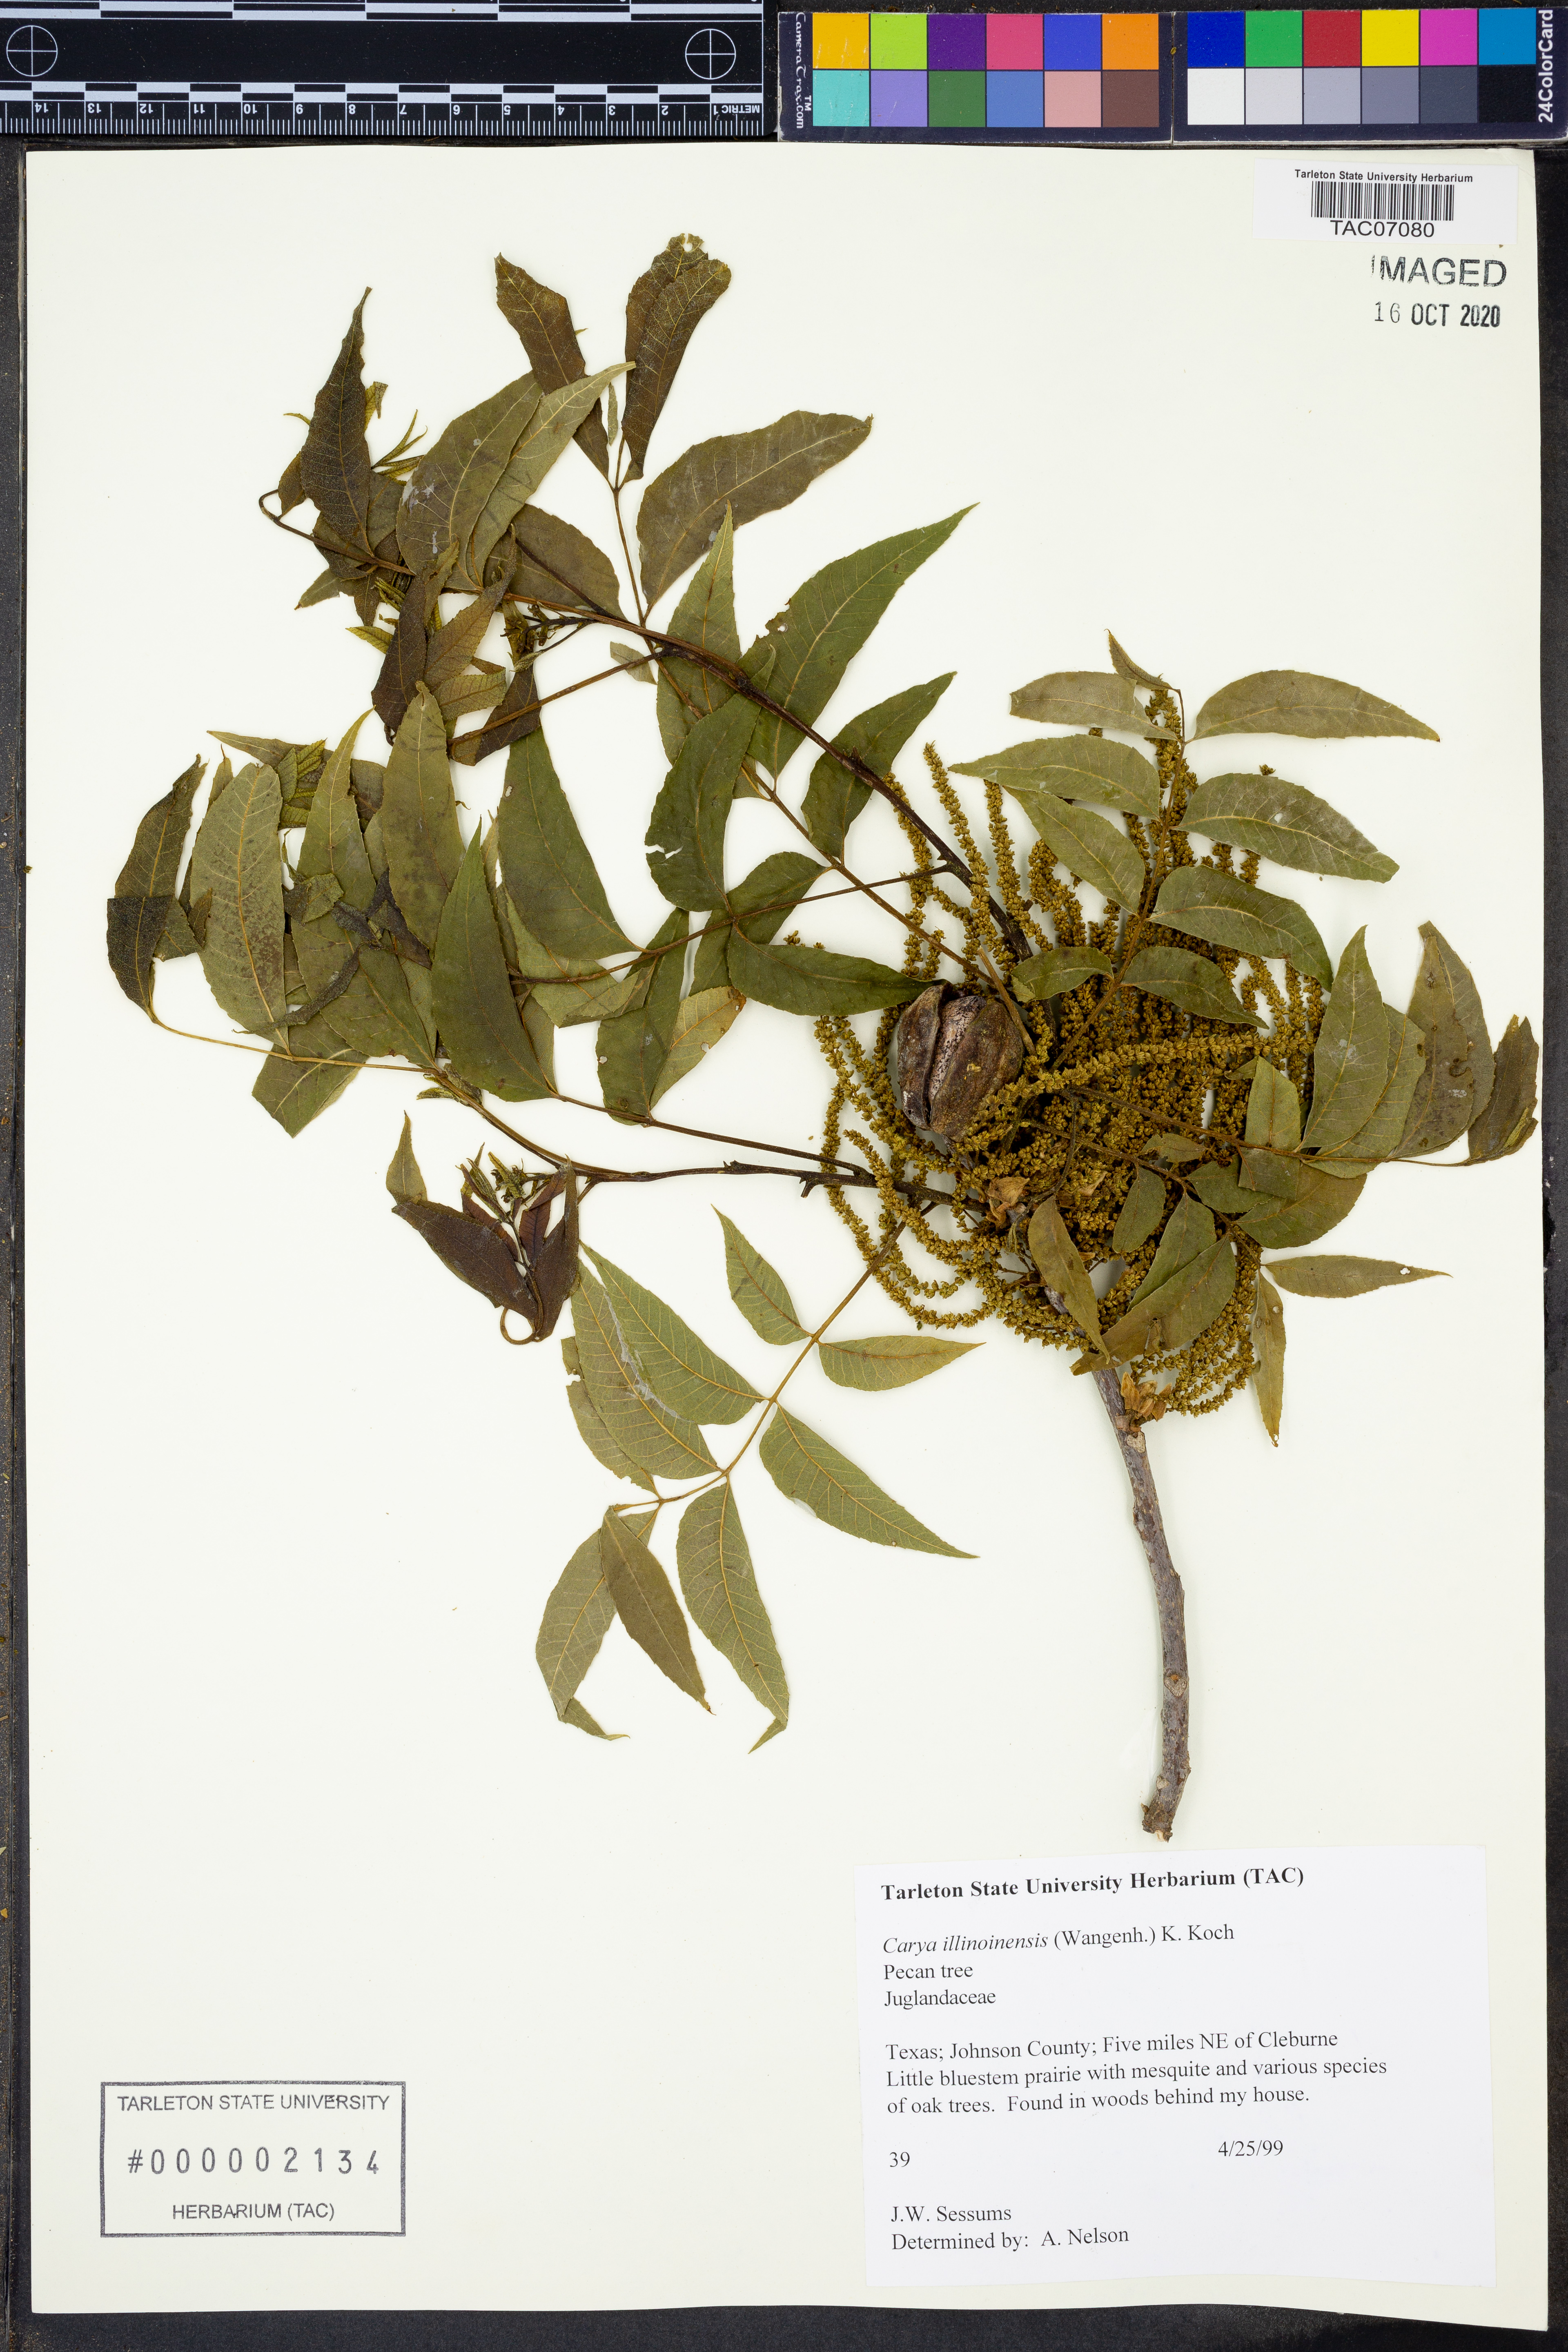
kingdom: Plantae
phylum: Tracheophyta
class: Magnoliopsida
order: Fagales
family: Juglandaceae
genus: Carya
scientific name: Carya illinoinensis
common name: Pecan
